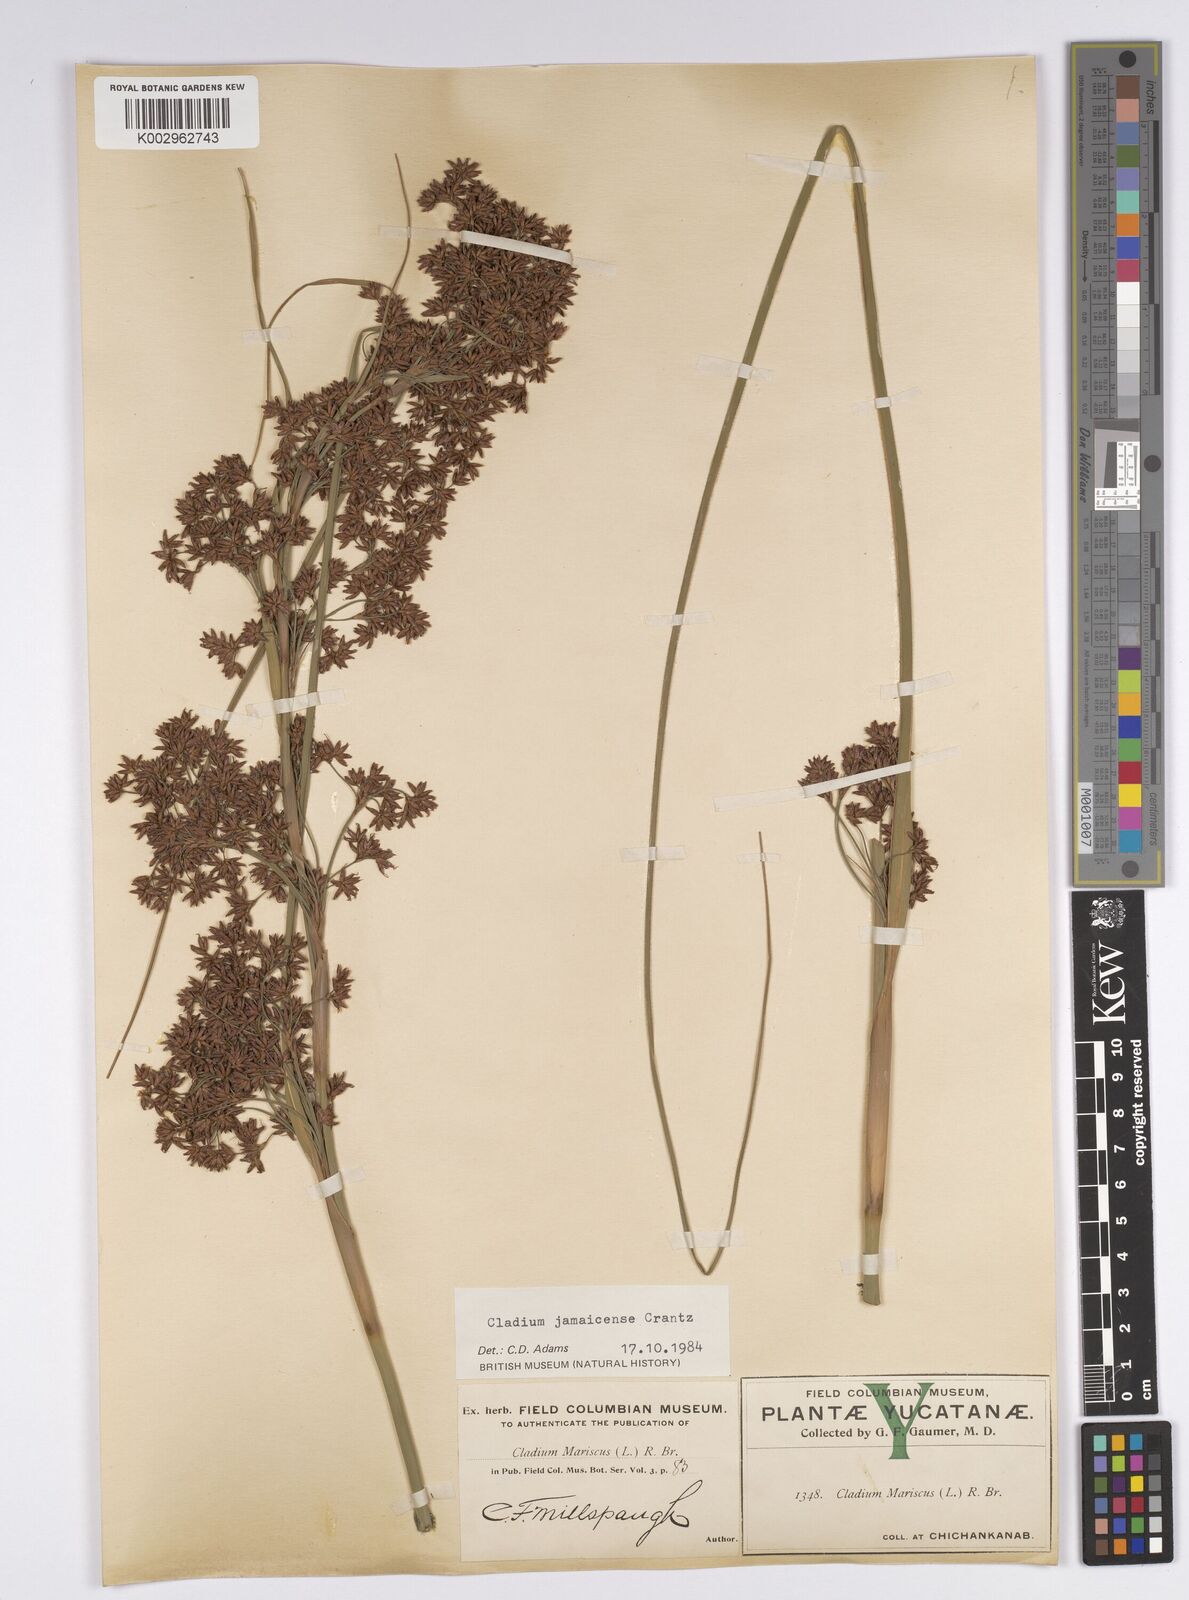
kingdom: Plantae
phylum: Tracheophyta
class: Liliopsida
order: Poales
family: Cyperaceae
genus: Cladium
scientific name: Cladium mariscus
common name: Great fen-sedge
